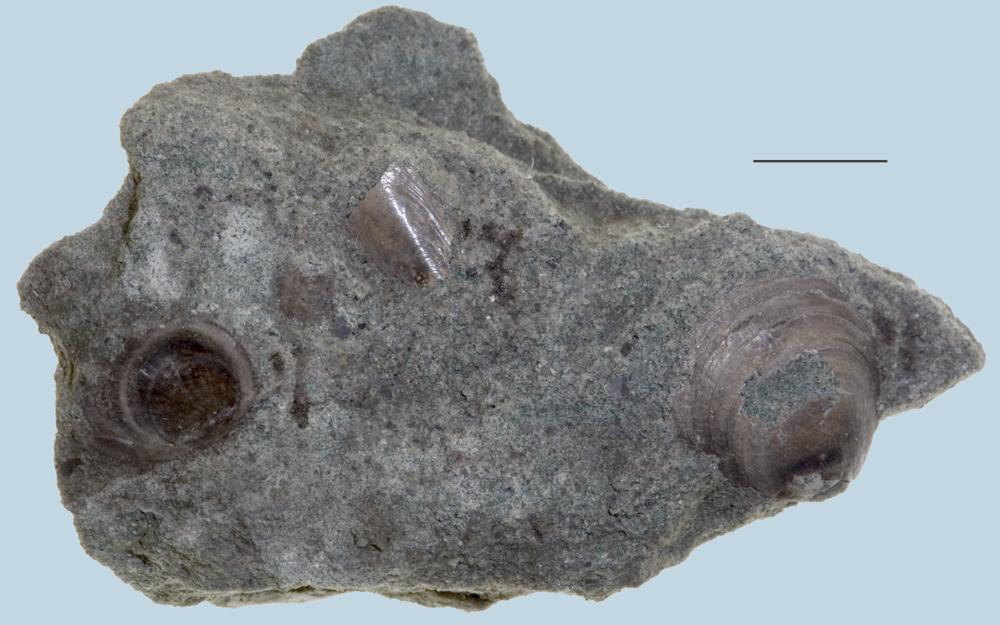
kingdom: Animalia
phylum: Brachiopoda
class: Lingulata
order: Lingulida
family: Obolidae
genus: Obolus
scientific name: Obolus siluricus
